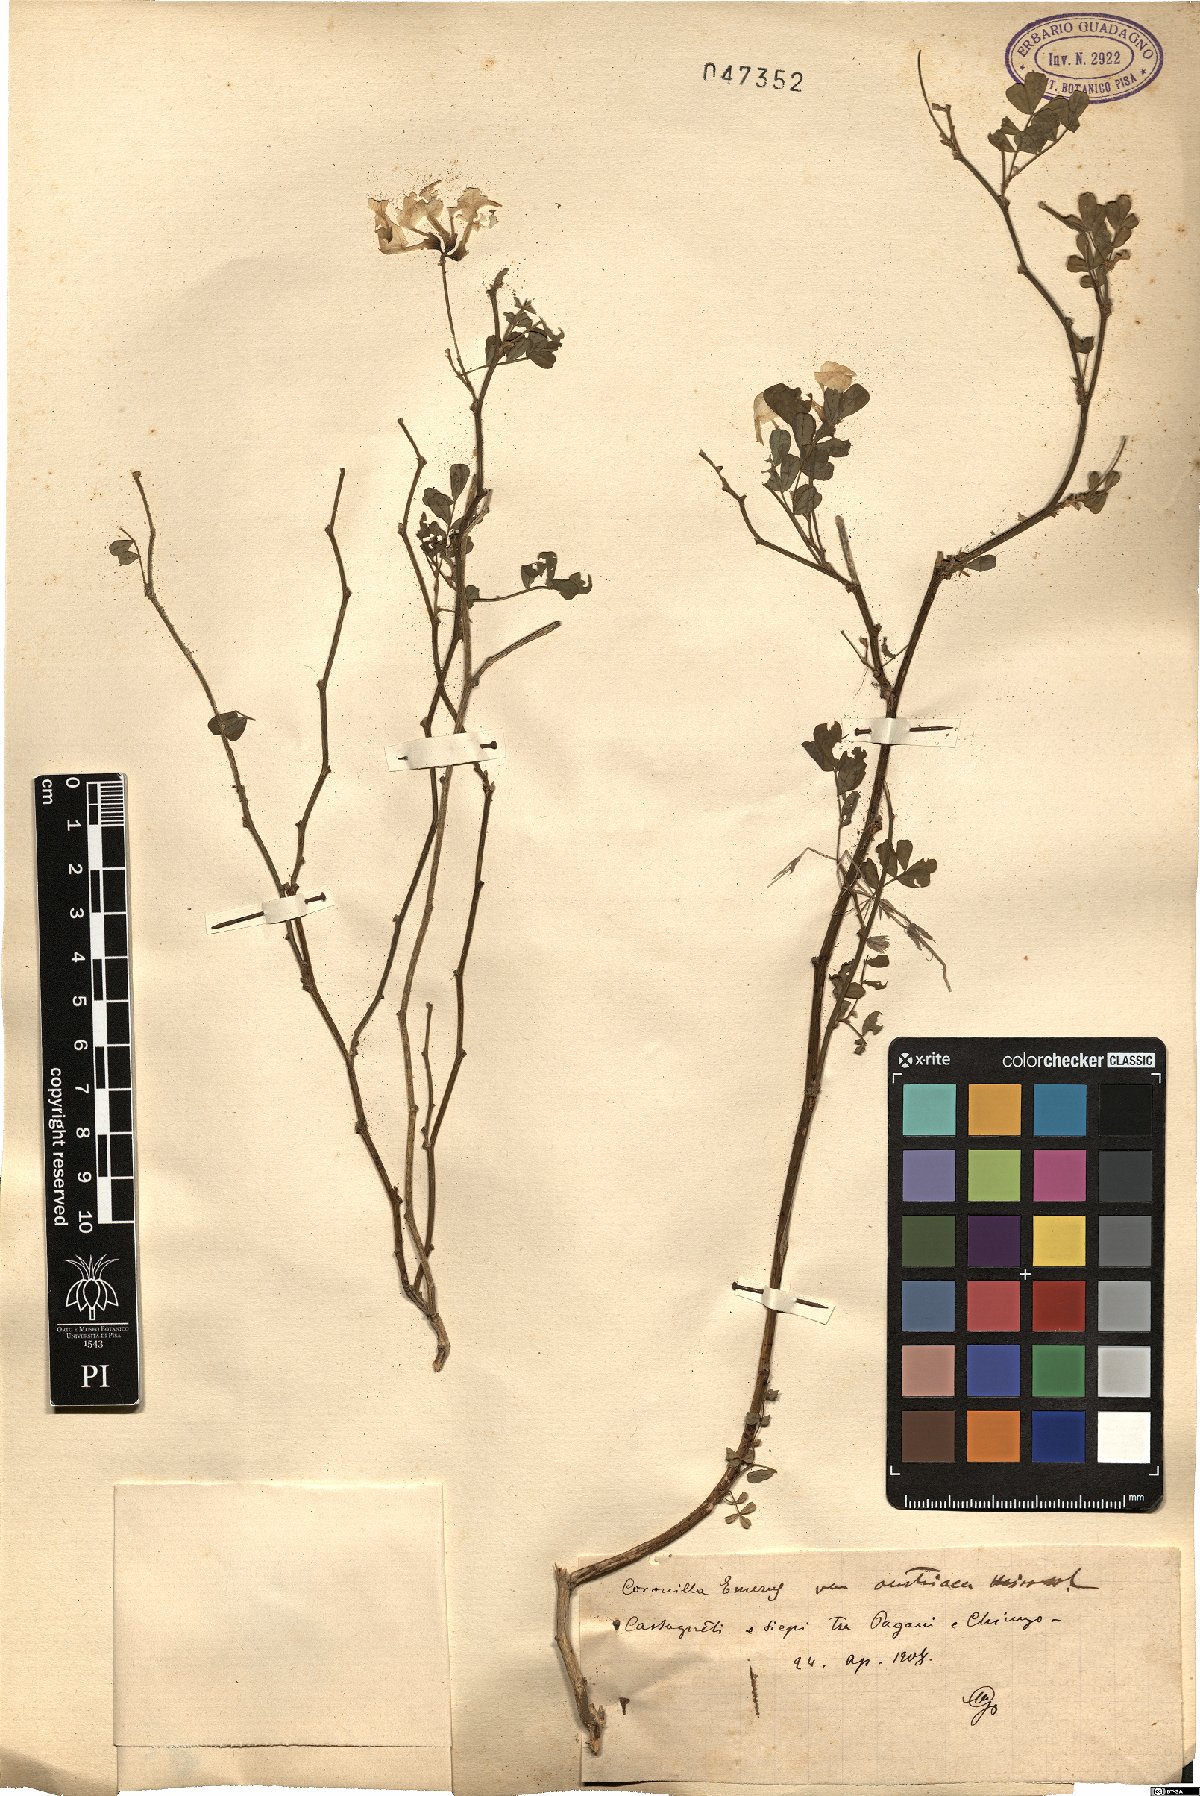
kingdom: Plantae
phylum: Tracheophyta
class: Magnoliopsida
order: Fabales
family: Fabaceae
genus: Hippocrepis
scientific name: Hippocrepis emerus
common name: Scorpion senna
